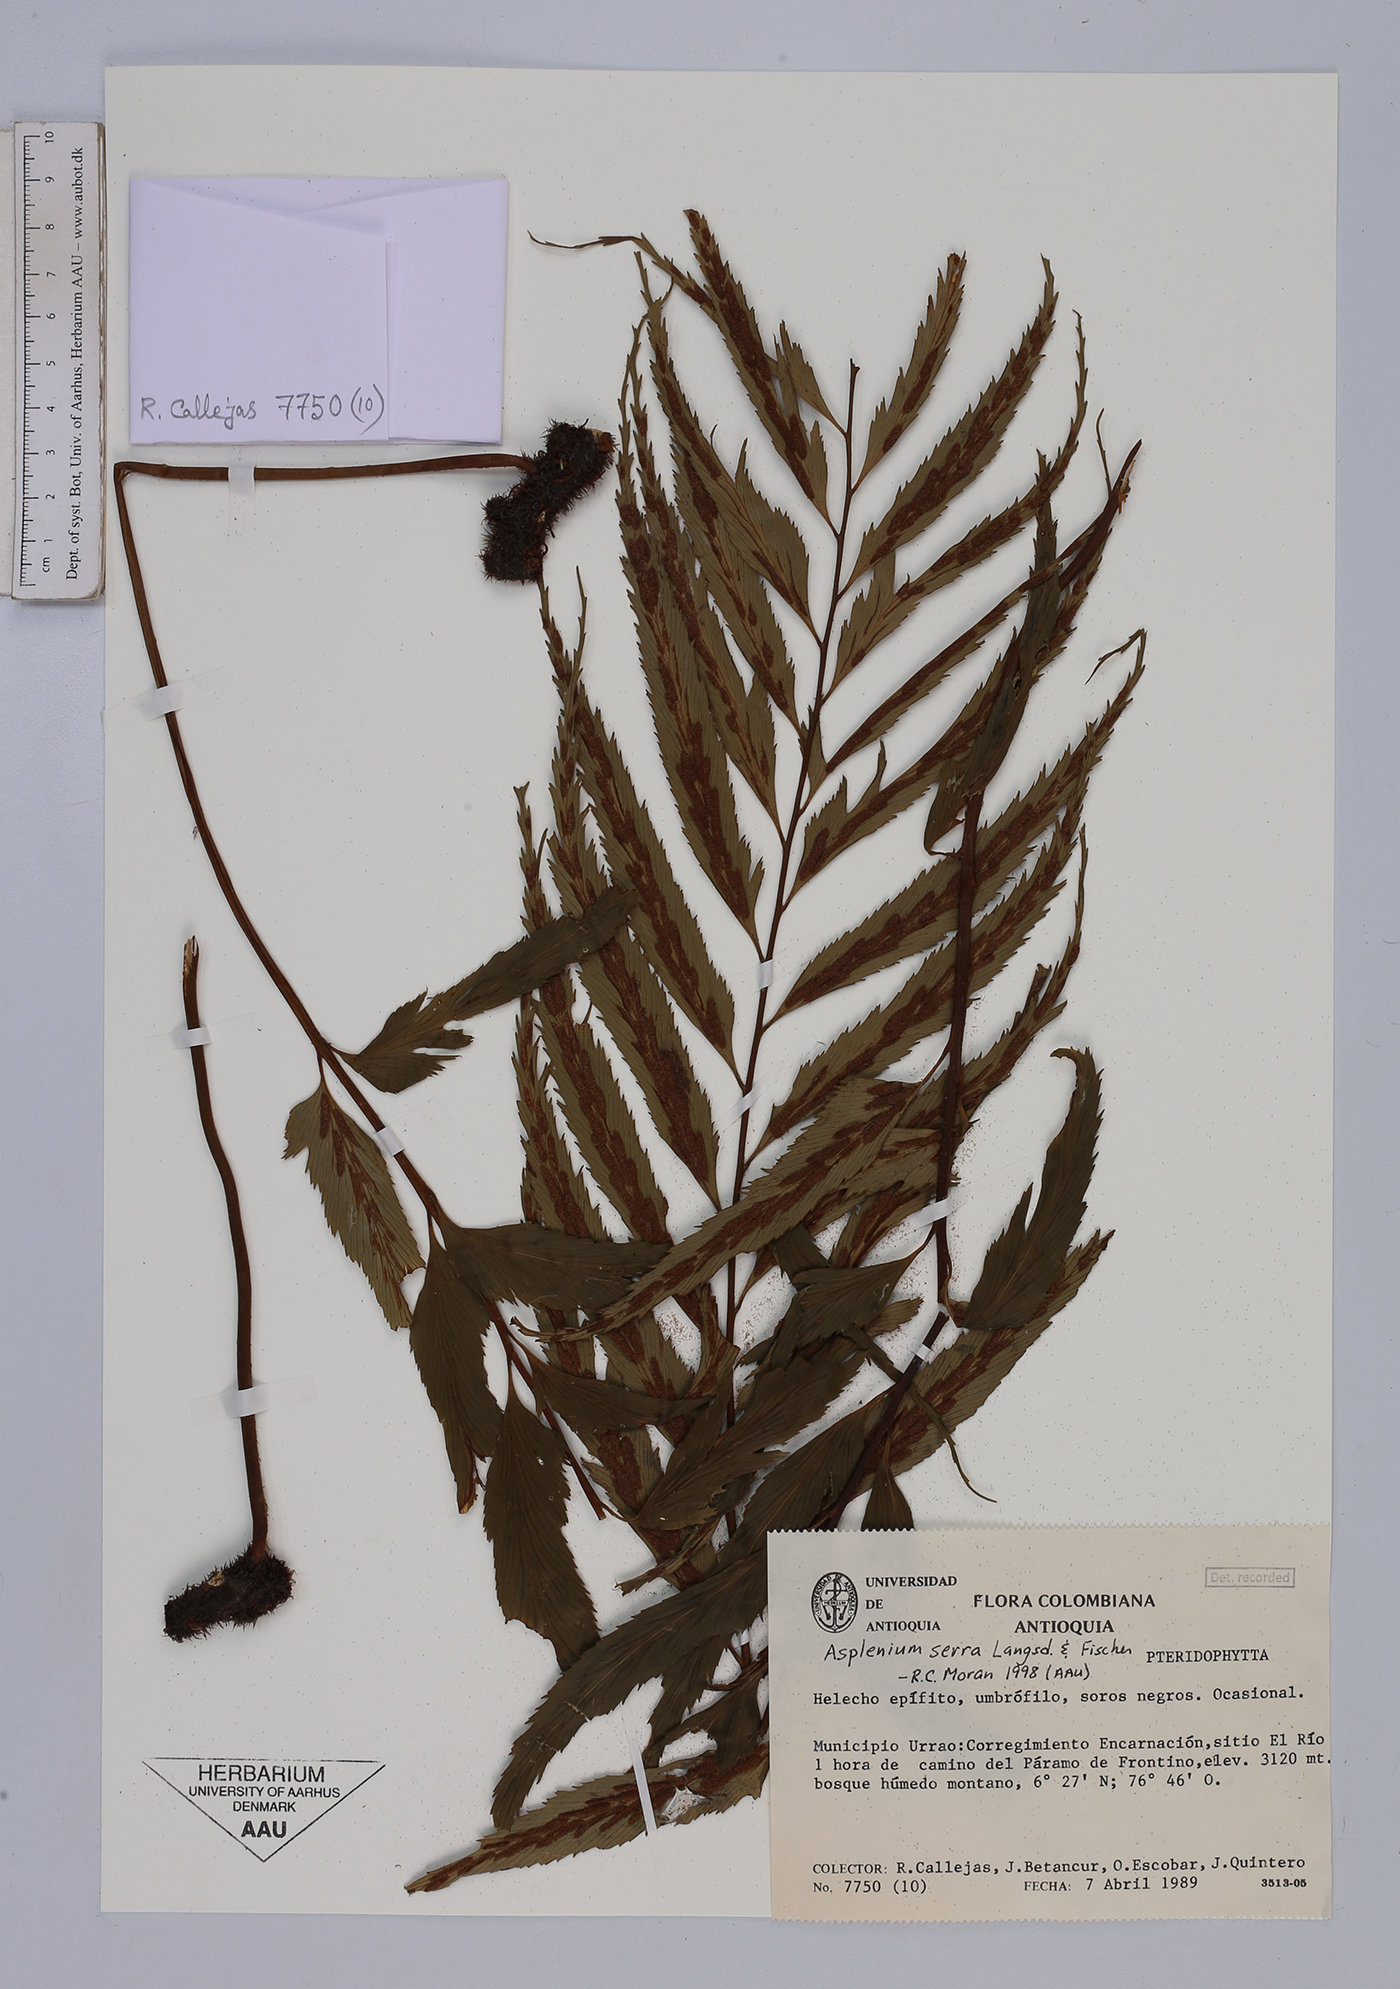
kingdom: Plantae
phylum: Tracheophyta
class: Polypodiopsida
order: Polypodiales
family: Aspleniaceae
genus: Asplenium
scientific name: Asplenium serra
